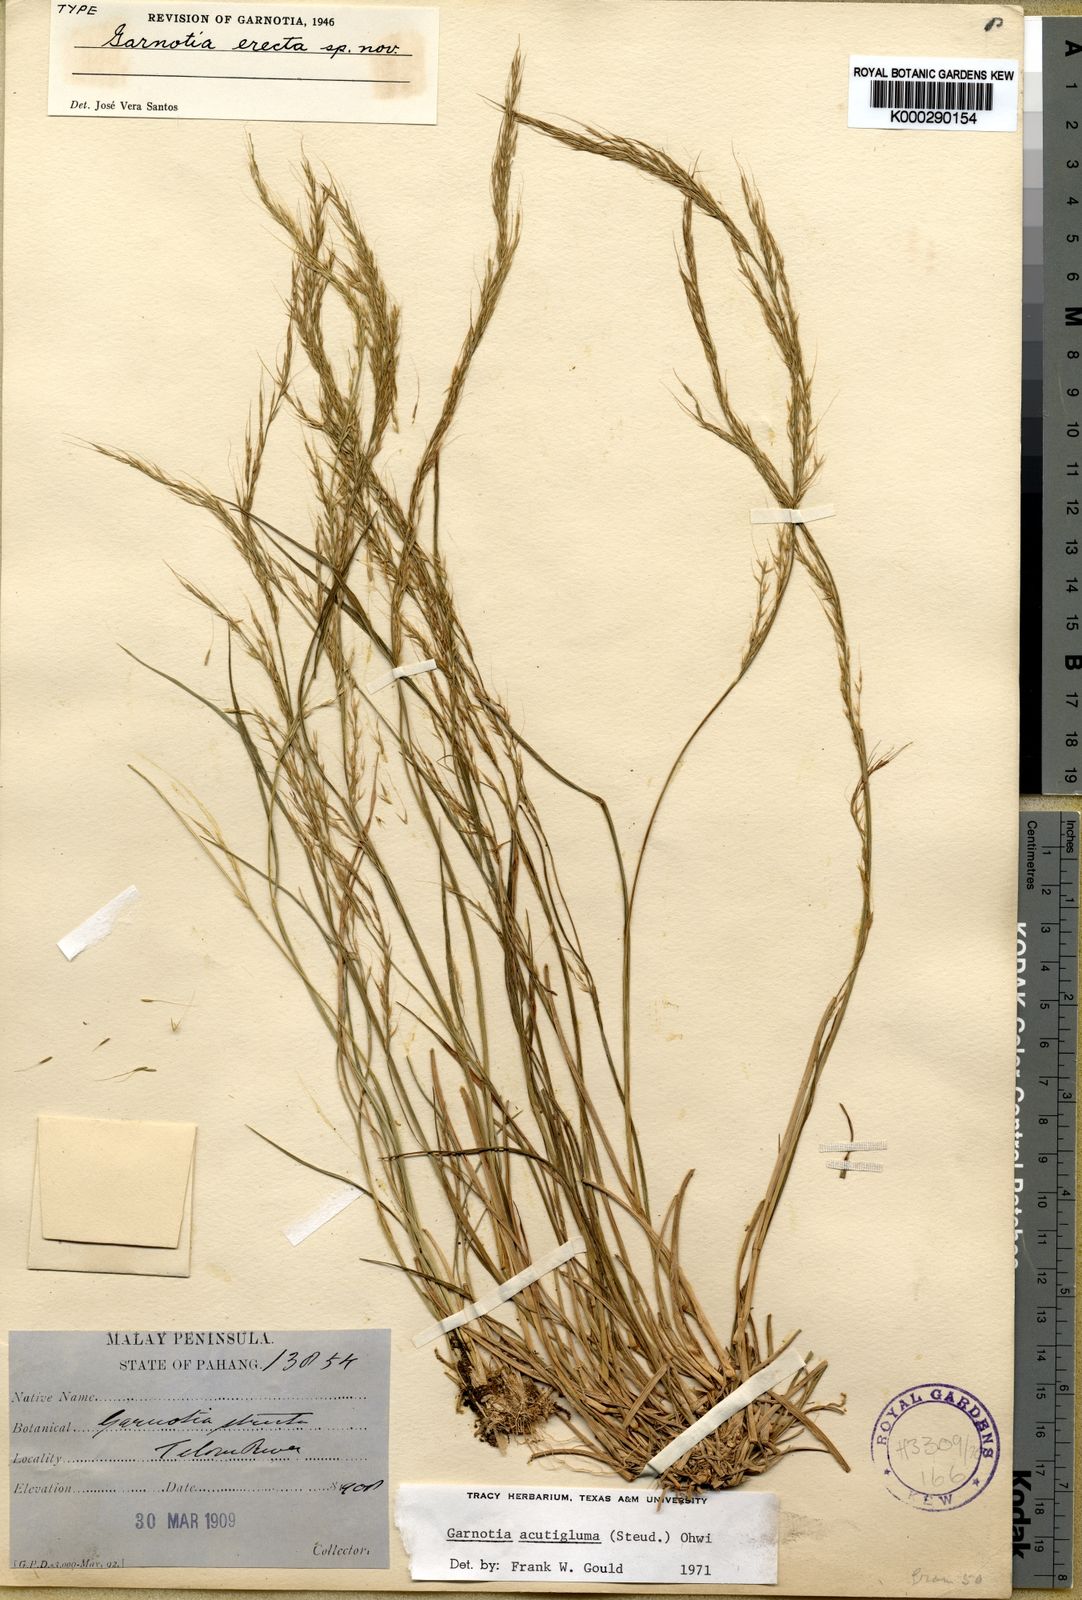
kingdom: Plantae
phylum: Tracheophyta
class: Liliopsida
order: Poales
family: Poaceae
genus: Garnotia
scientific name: Garnotia stricta
